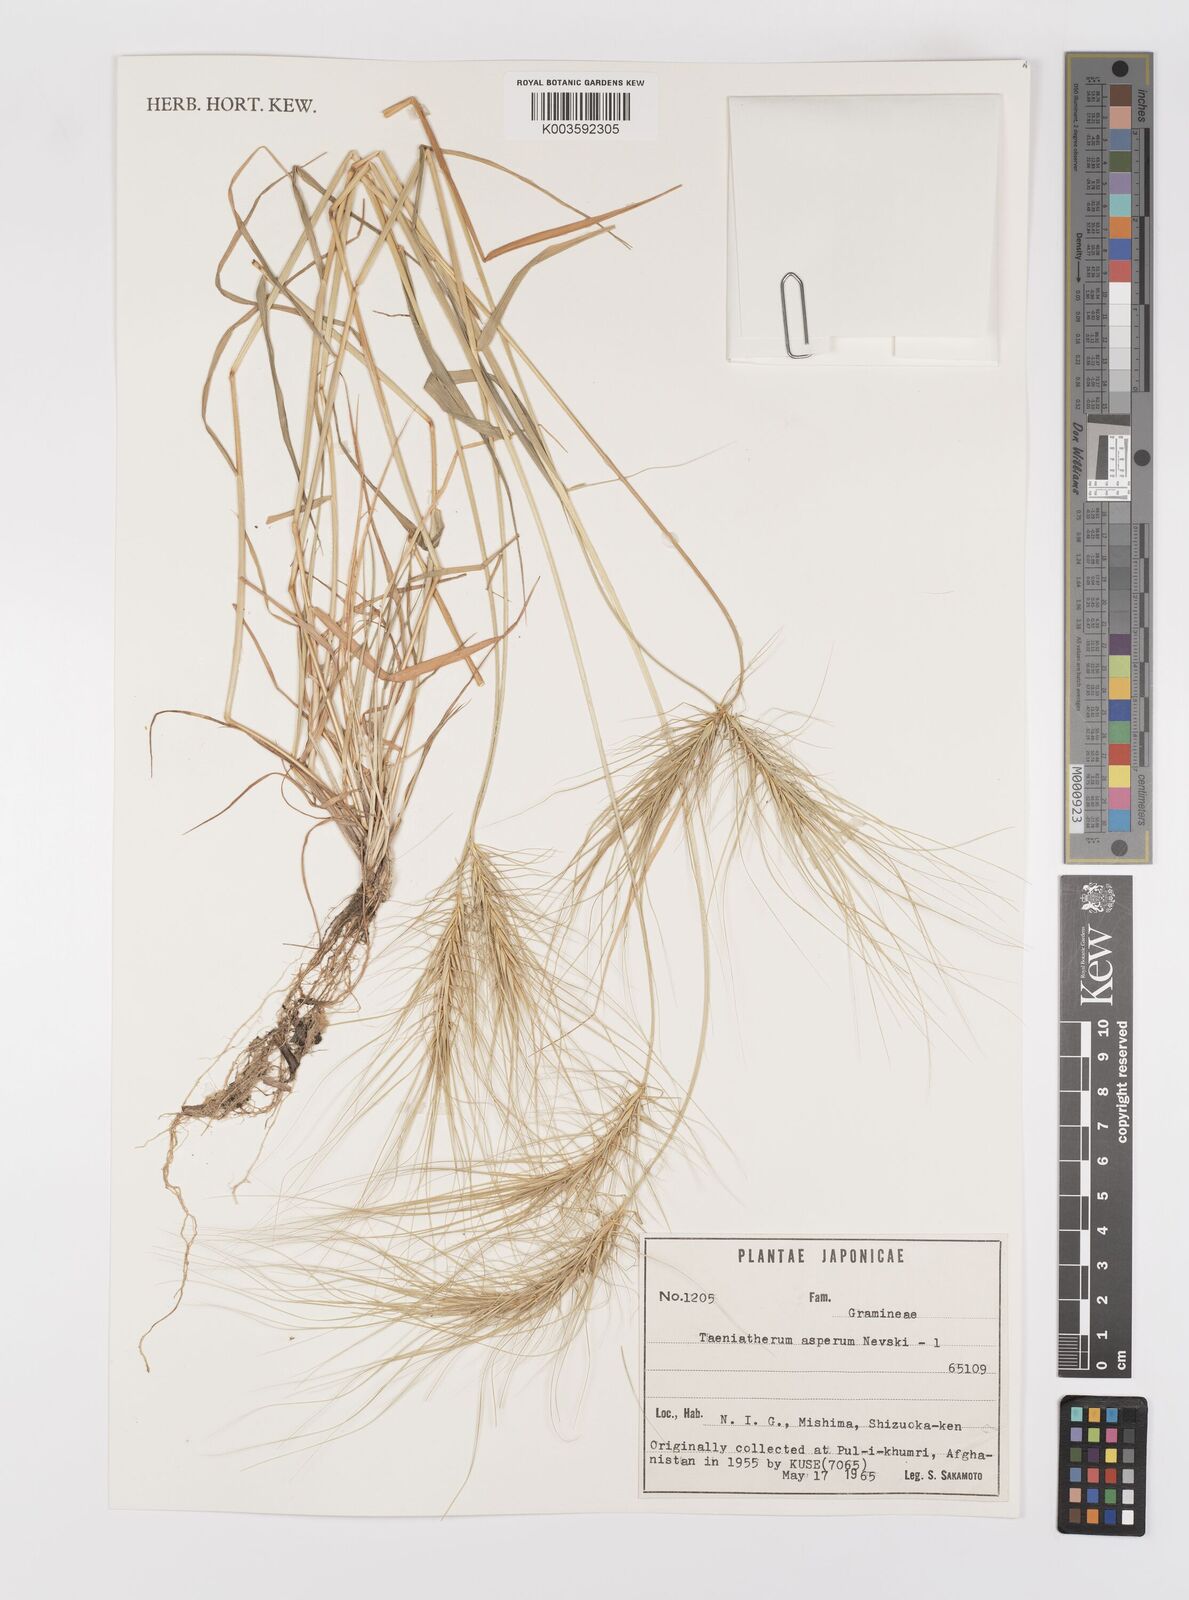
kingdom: Plantae
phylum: Tracheophyta
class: Liliopsida
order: Poales
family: Poaceae
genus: Taeniatherum
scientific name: Taeniatherum caput-medusae
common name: Medusahead
